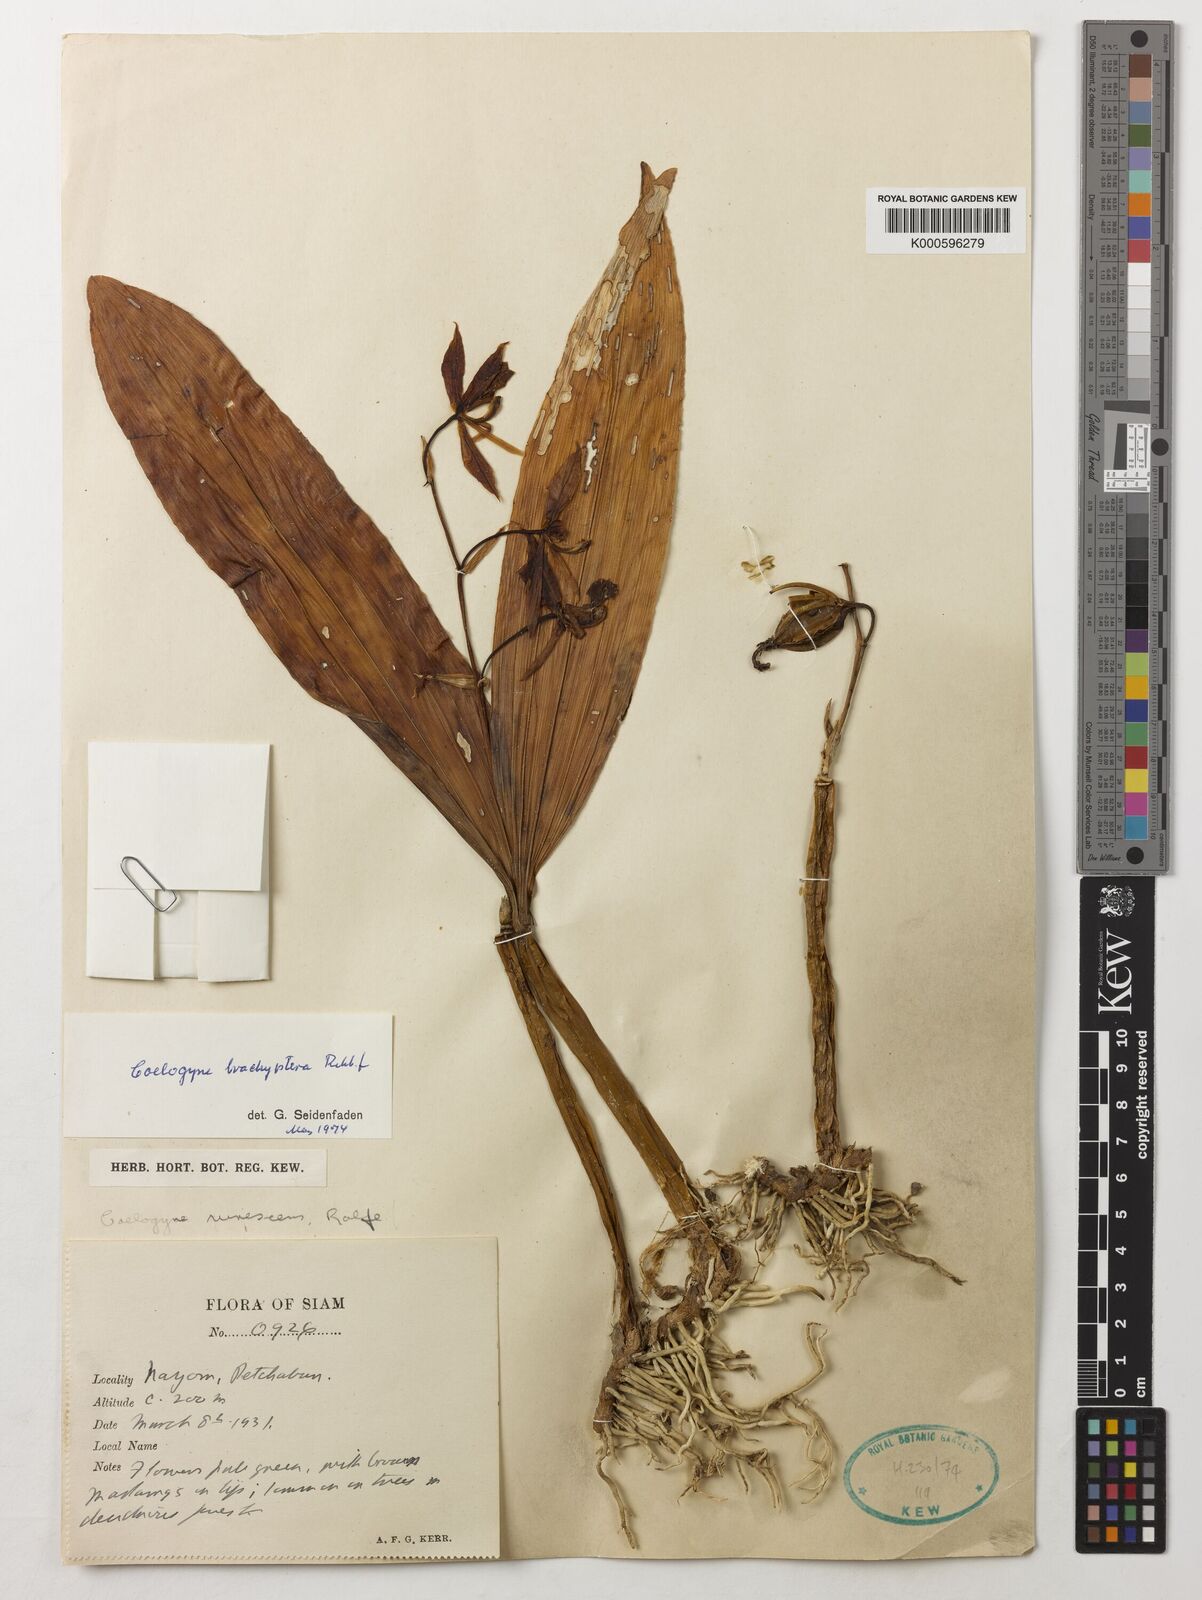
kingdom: Plantae
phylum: Tracheophyta
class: Liliopsida
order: Asparagales
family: Orchidaceae
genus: Coelogyne
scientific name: Coelogyne brachyptera
